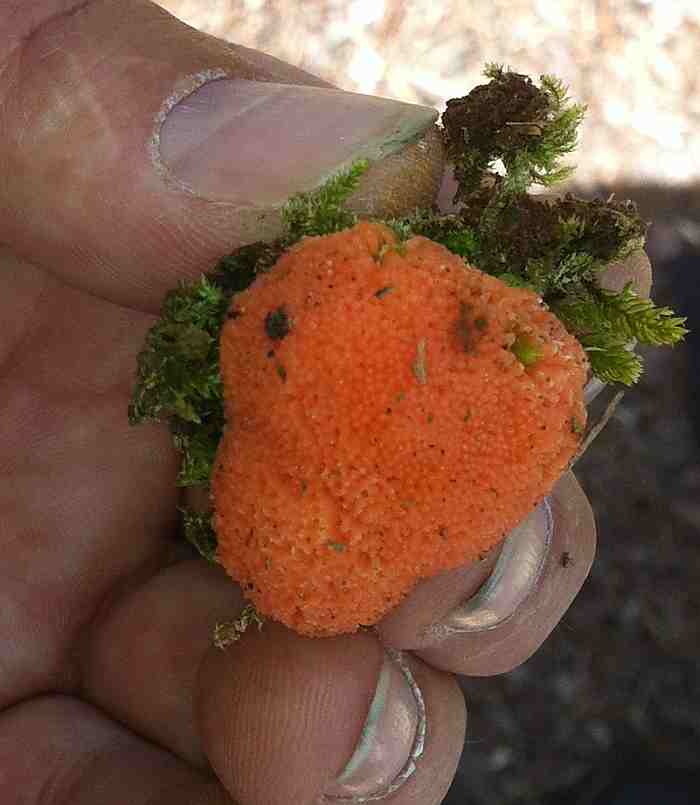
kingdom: Protozoa
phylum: Mycetozoa
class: Myxomycetes
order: Cribrariales
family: Tubiferaceae
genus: Tubifera
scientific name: Tubifera ferruginosa
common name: kanel-støvrør
